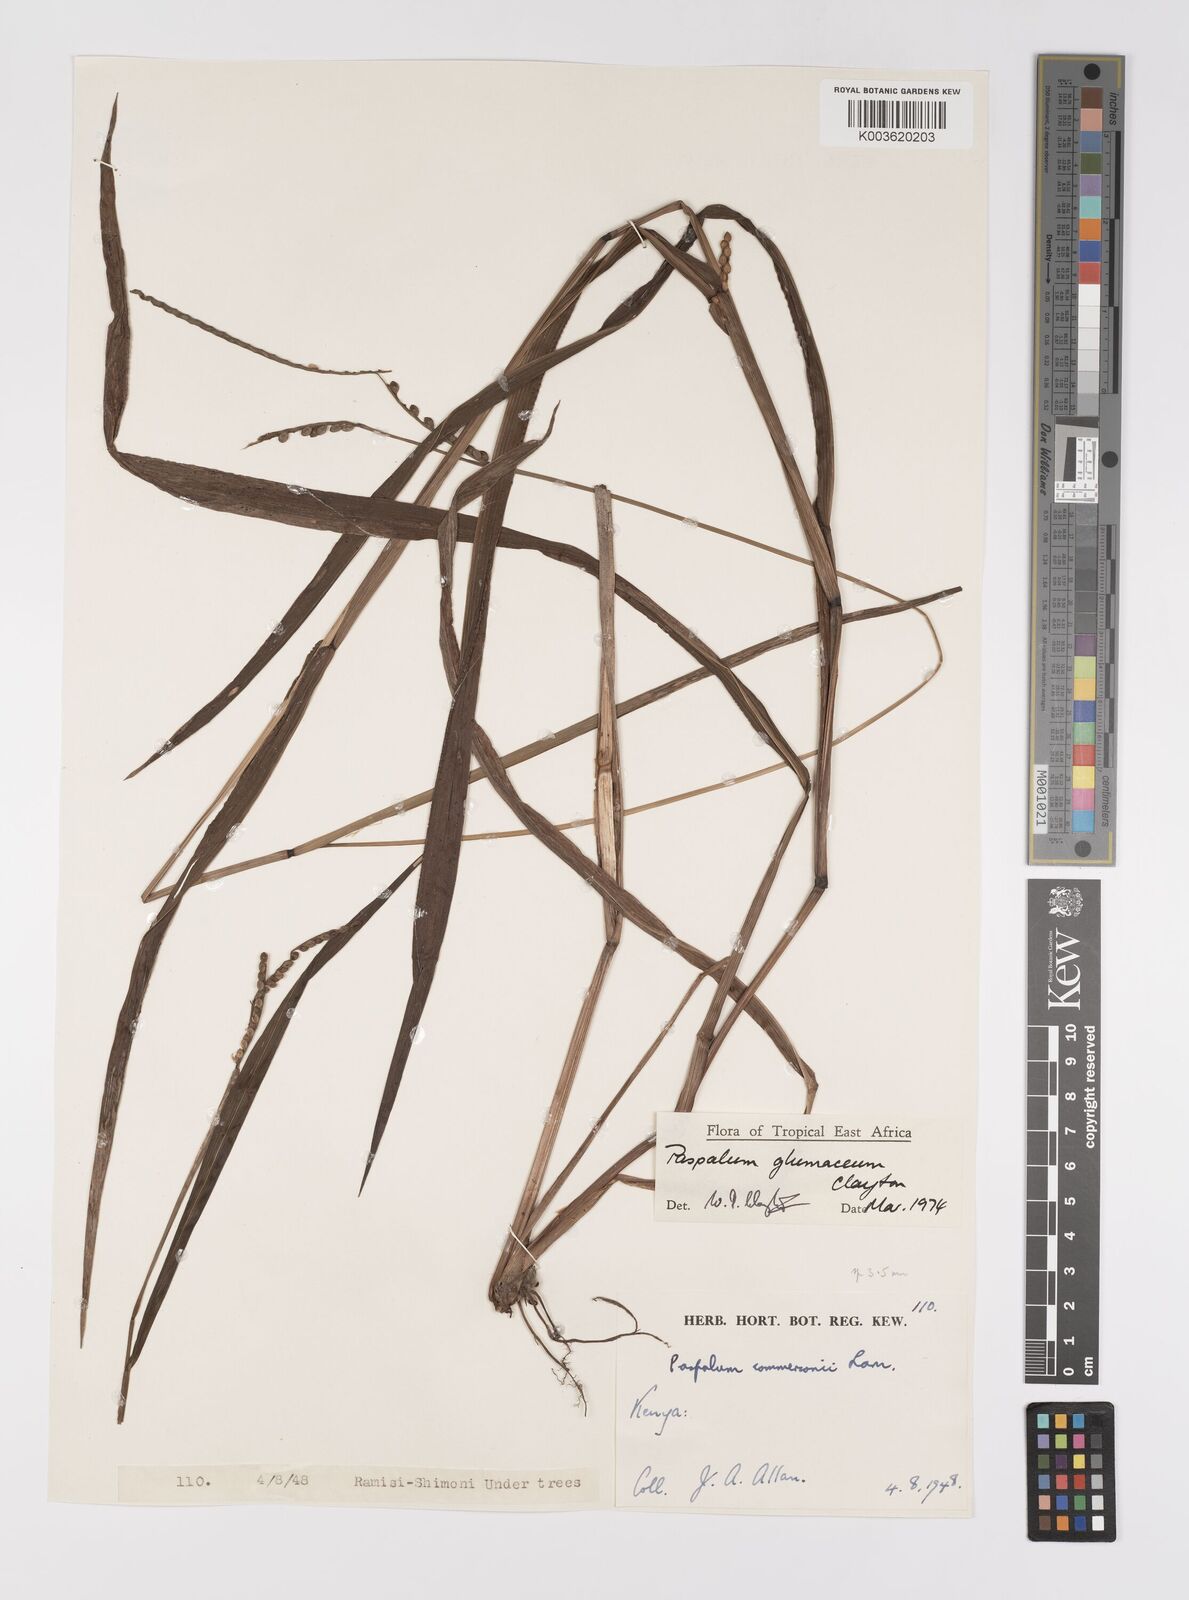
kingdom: Plantae
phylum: Tracheophyta
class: Liliopsida
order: Poales
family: Poaceae
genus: Paspalum
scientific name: Paspalum glumaceum
